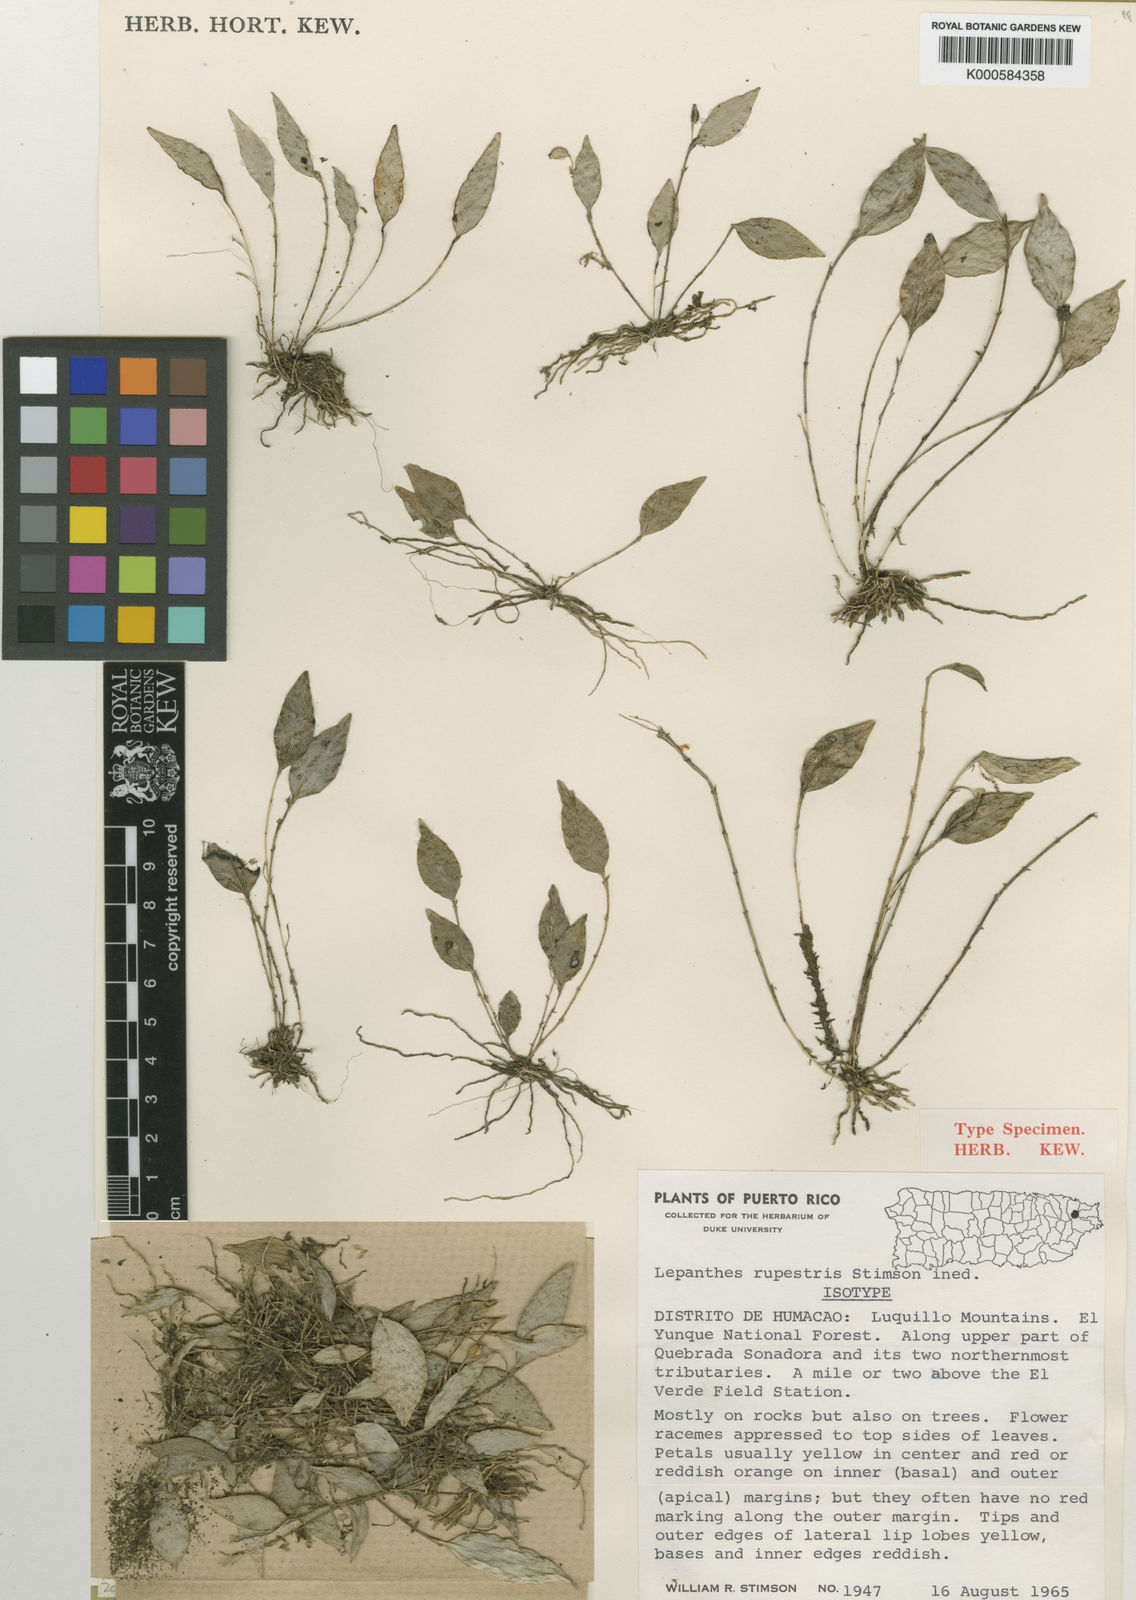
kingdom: Plantae
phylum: Tracheophyta
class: Liliopsida
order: Asparagales
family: Orchidaceae
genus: Lepanthes
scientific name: Lepanthes rupestris
